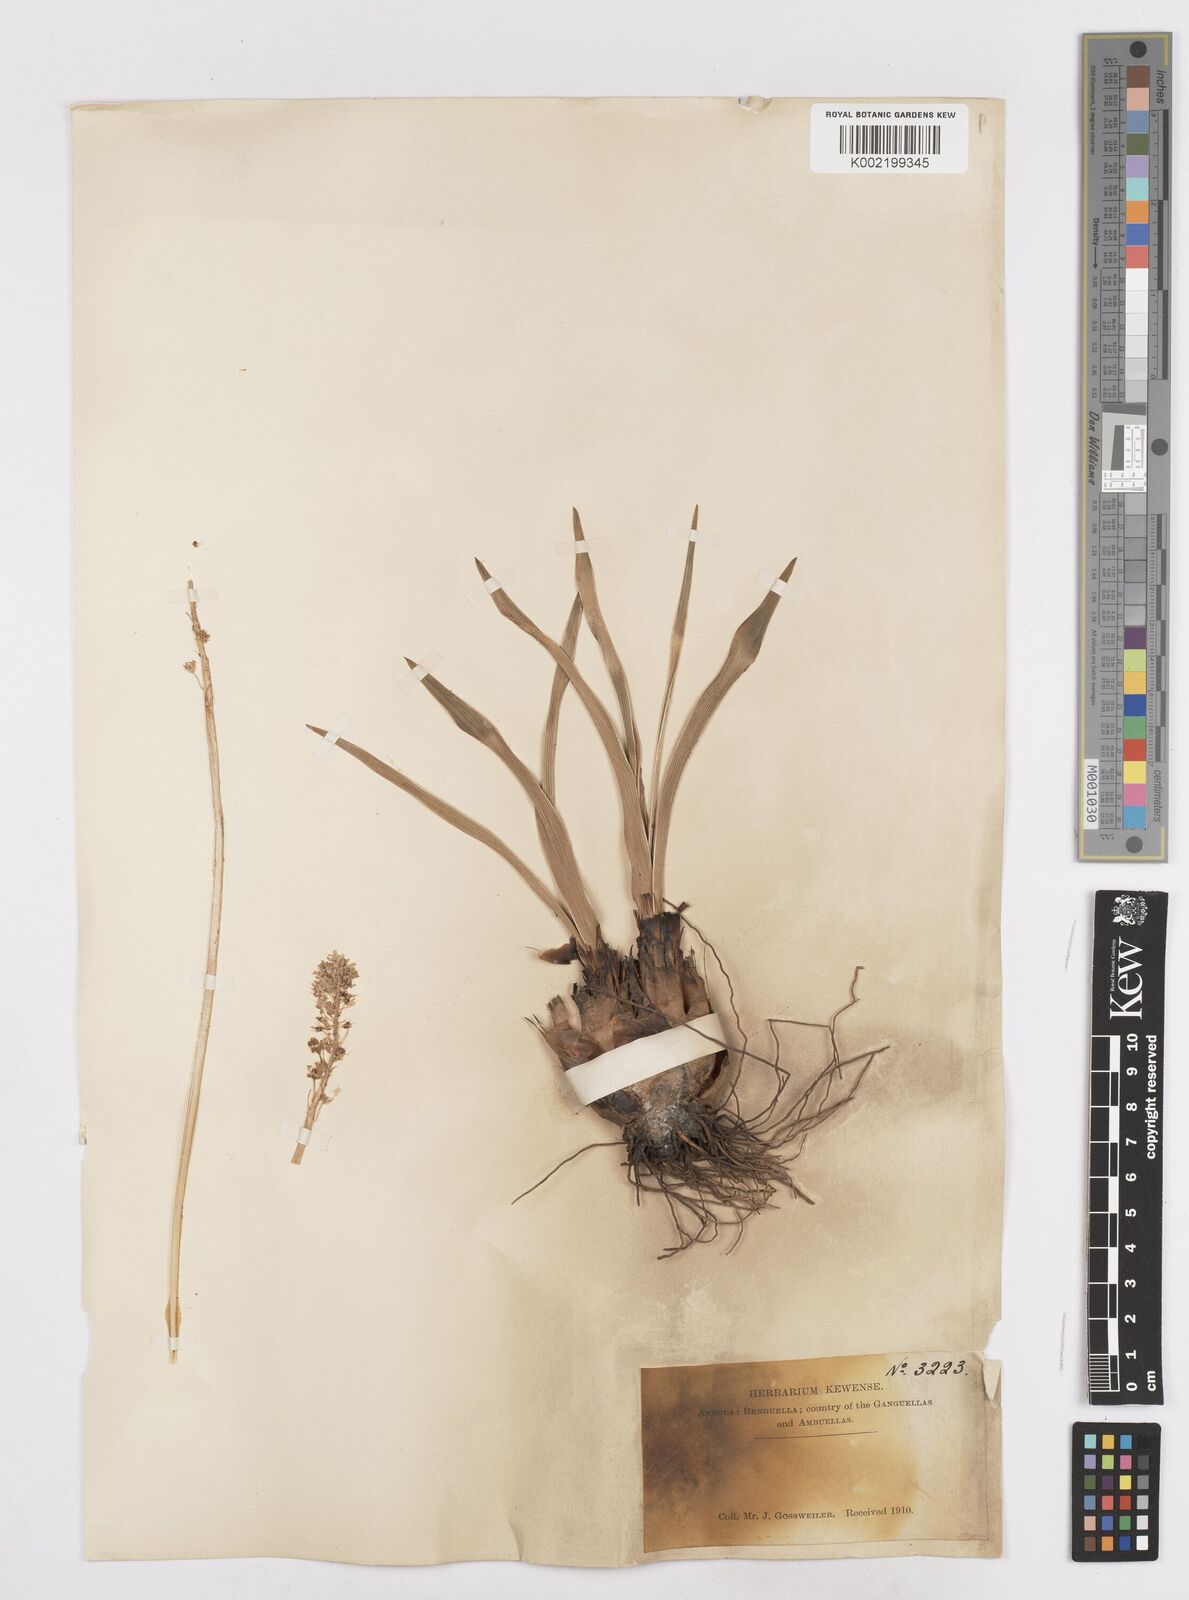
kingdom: Plantae
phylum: Tracheophyta
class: Liliopsida
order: Asparagales
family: Asparagaceae
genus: Schizocarphus
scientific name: Schizocarphus nervosus
